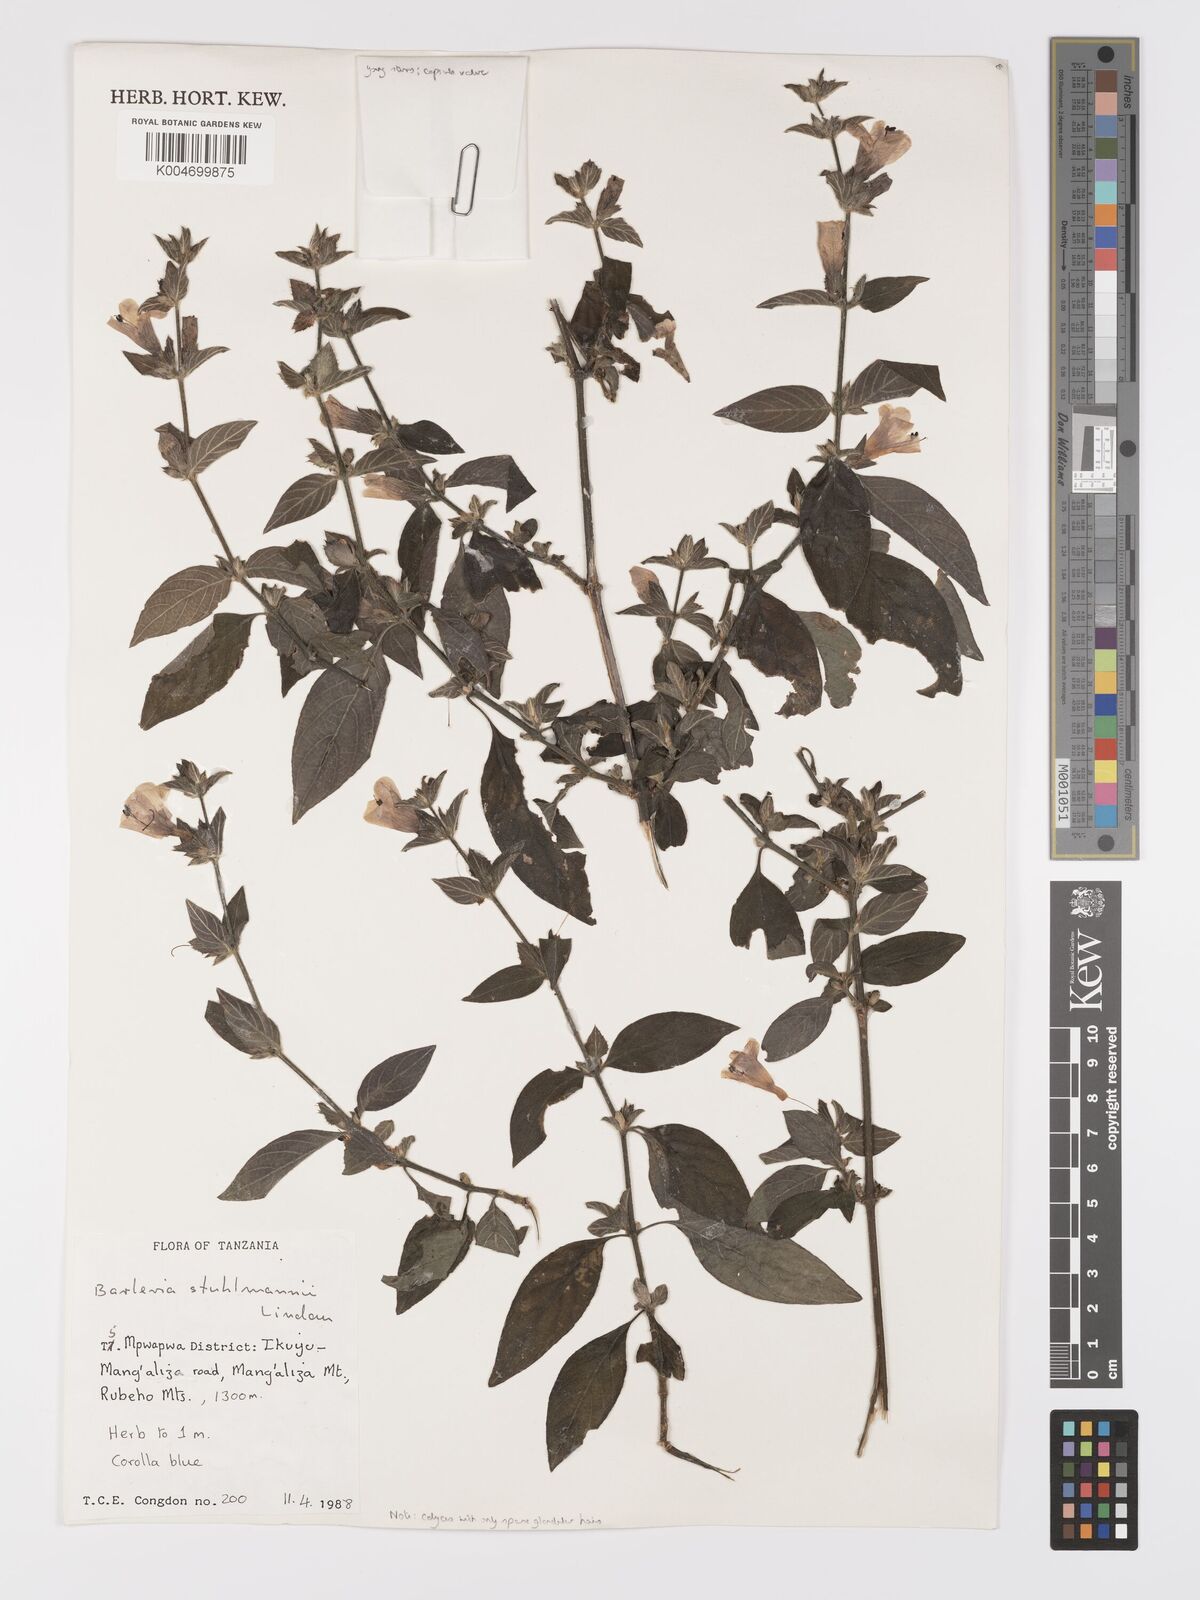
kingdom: Plantae
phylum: Tracheophyta
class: Magnoliopsida
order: Lamiales
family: Acanthaceae
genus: Barleria
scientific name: Barleria ventricosa
